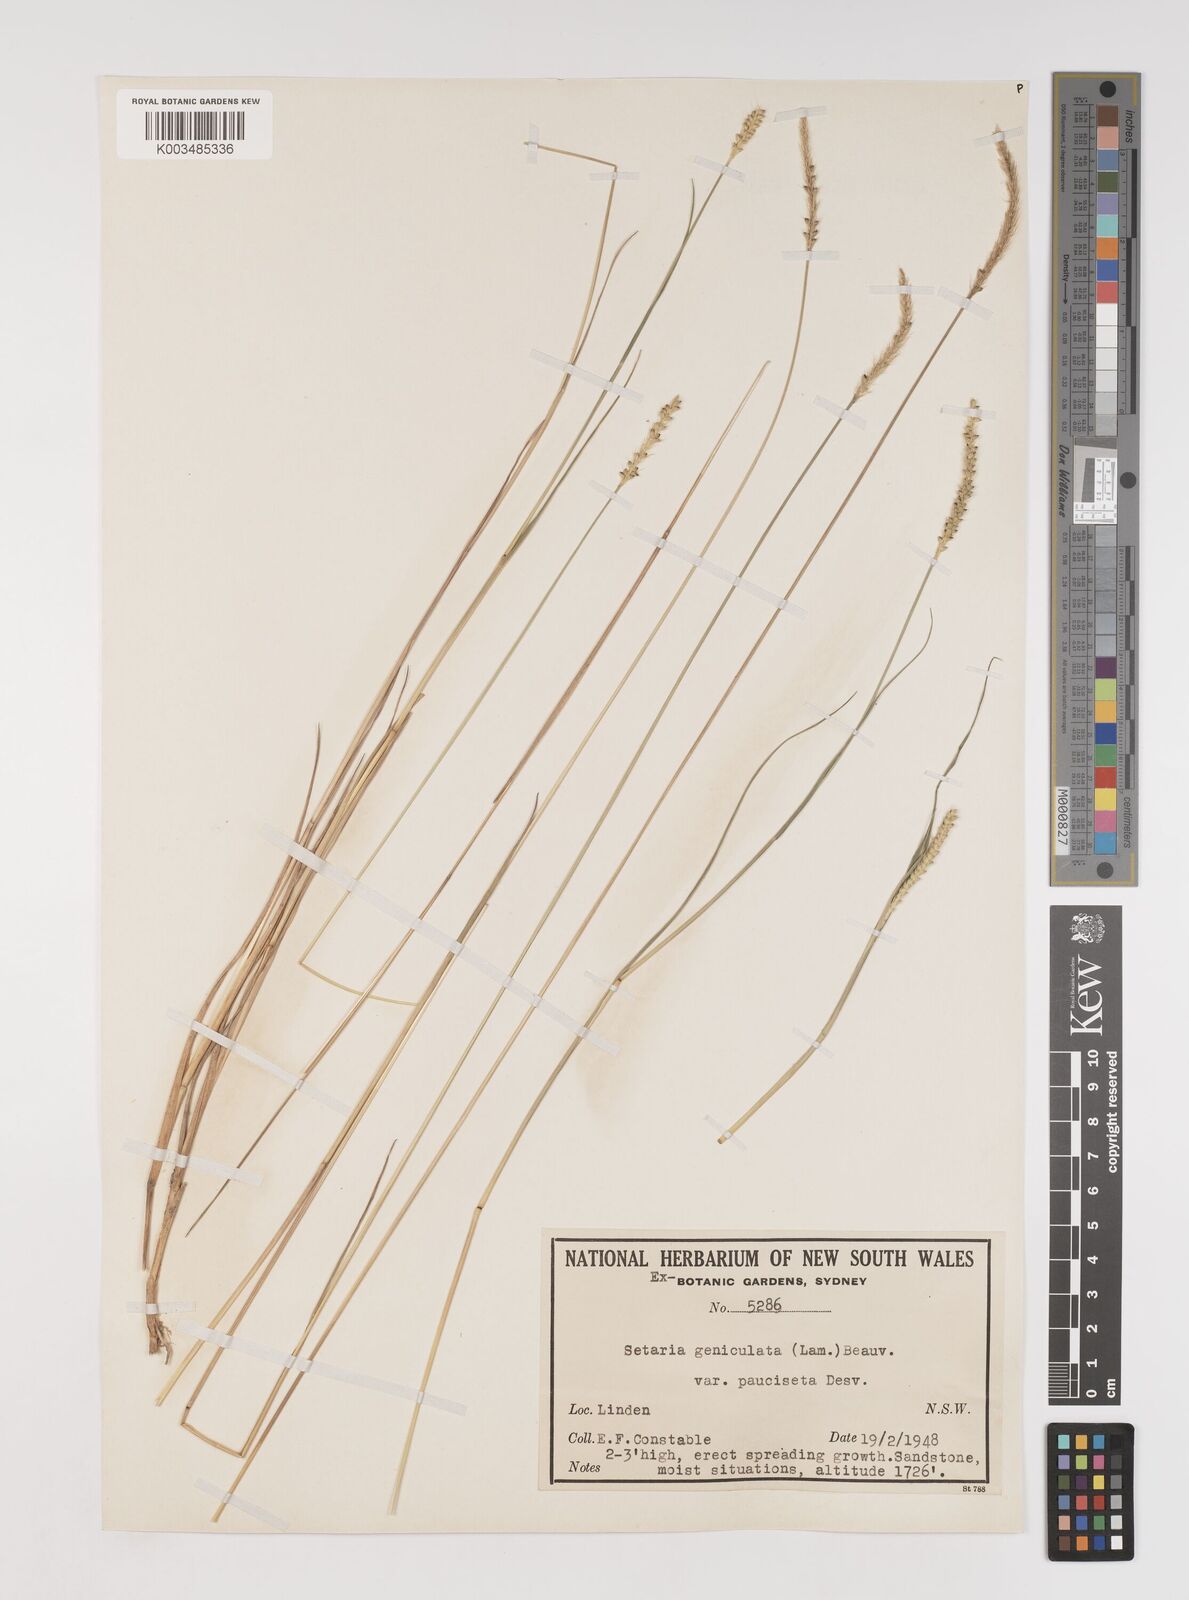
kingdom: Plantae
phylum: Tracheophyta
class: Liliopsida
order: Poales
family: Poaceae
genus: Setaria
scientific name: Setaria parviflora
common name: Knotroot bristle-grass
